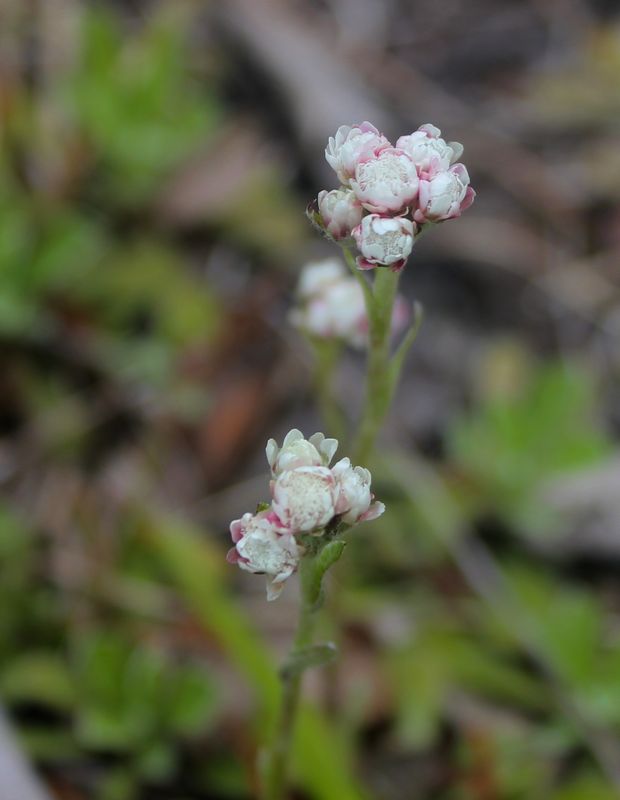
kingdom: Plantae
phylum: Tracheophyta
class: Magnoliopsida
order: Asterales
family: Asteraceae
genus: Antennaria
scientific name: Antennaria dioica
